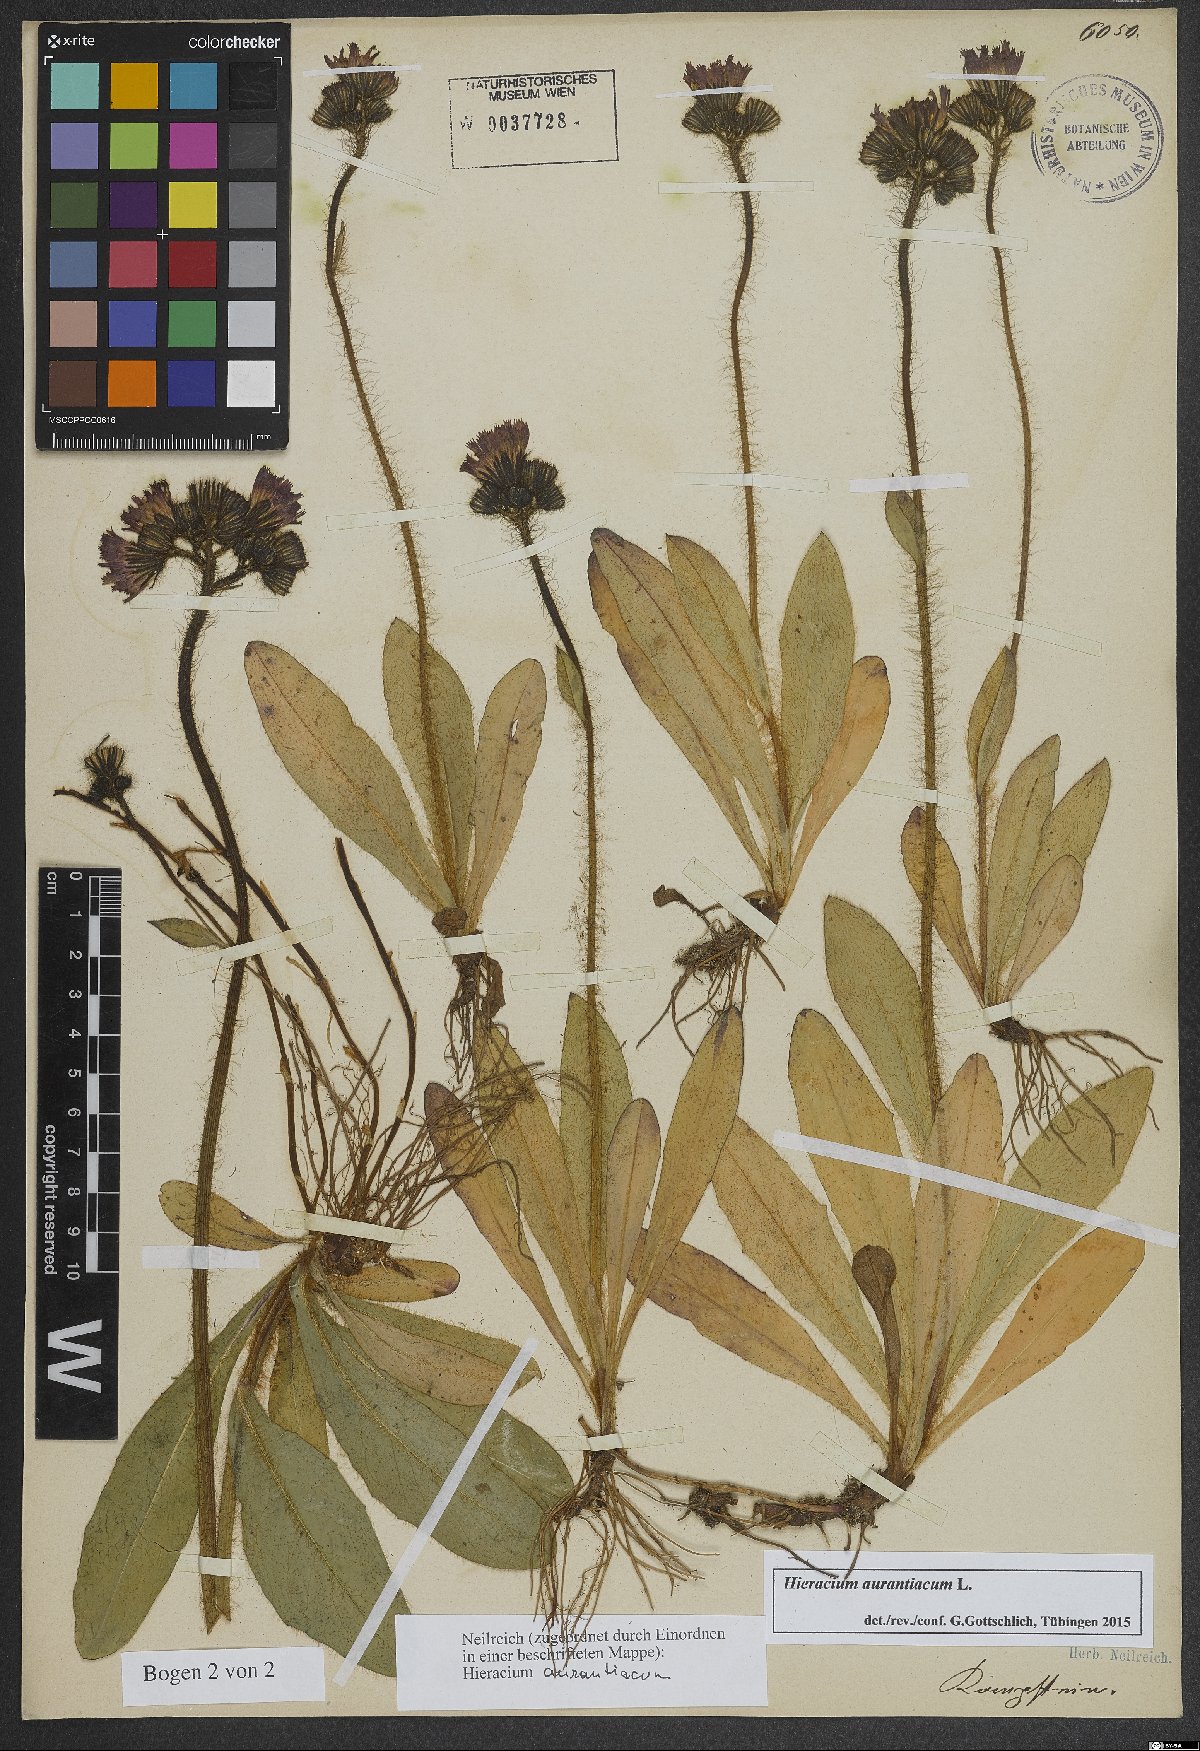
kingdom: Plantae
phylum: Tracheophyta
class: Magnoliopsida
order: Asterales
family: Asteraceae
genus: Pilosella
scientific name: Pilosella aurantiaca
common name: Fox-and-cubs
